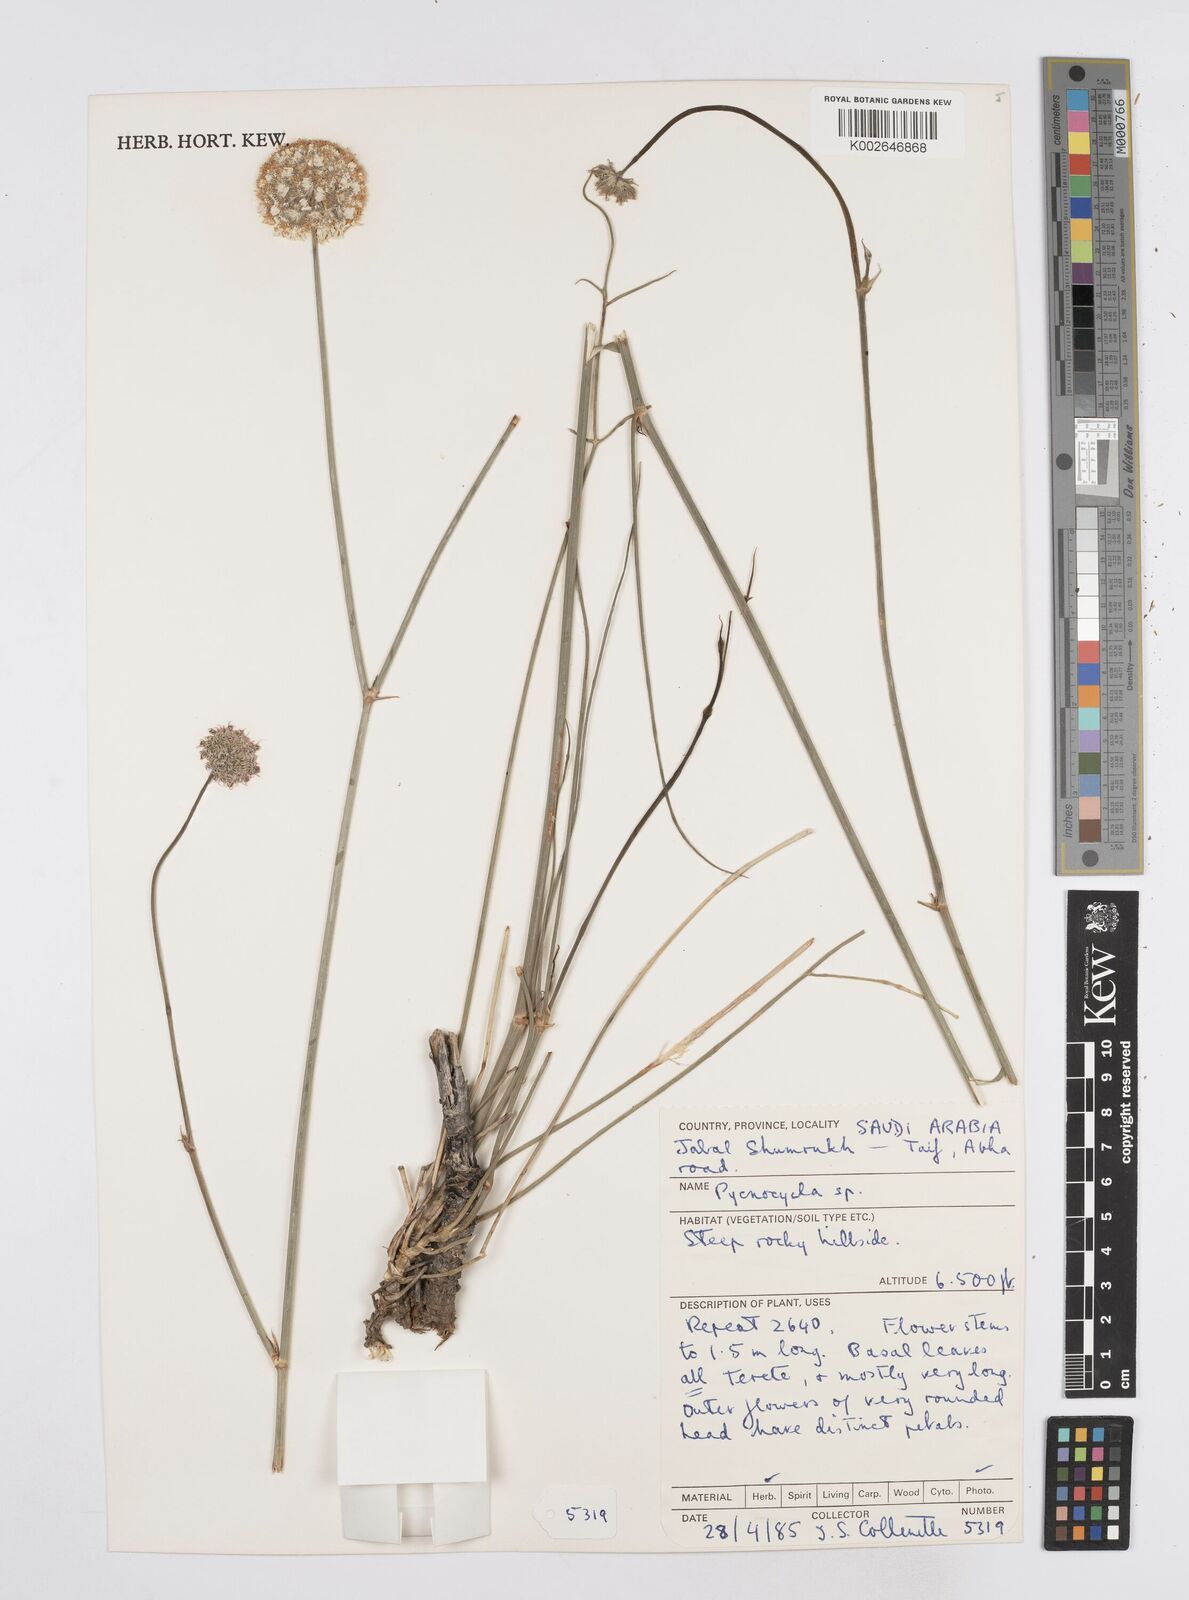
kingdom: Plantae
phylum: Tracheophyta
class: Magnoliopsida
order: Apiales
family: Apiaceae
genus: Pycnocycla
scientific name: Pycnocycla tomentosa
